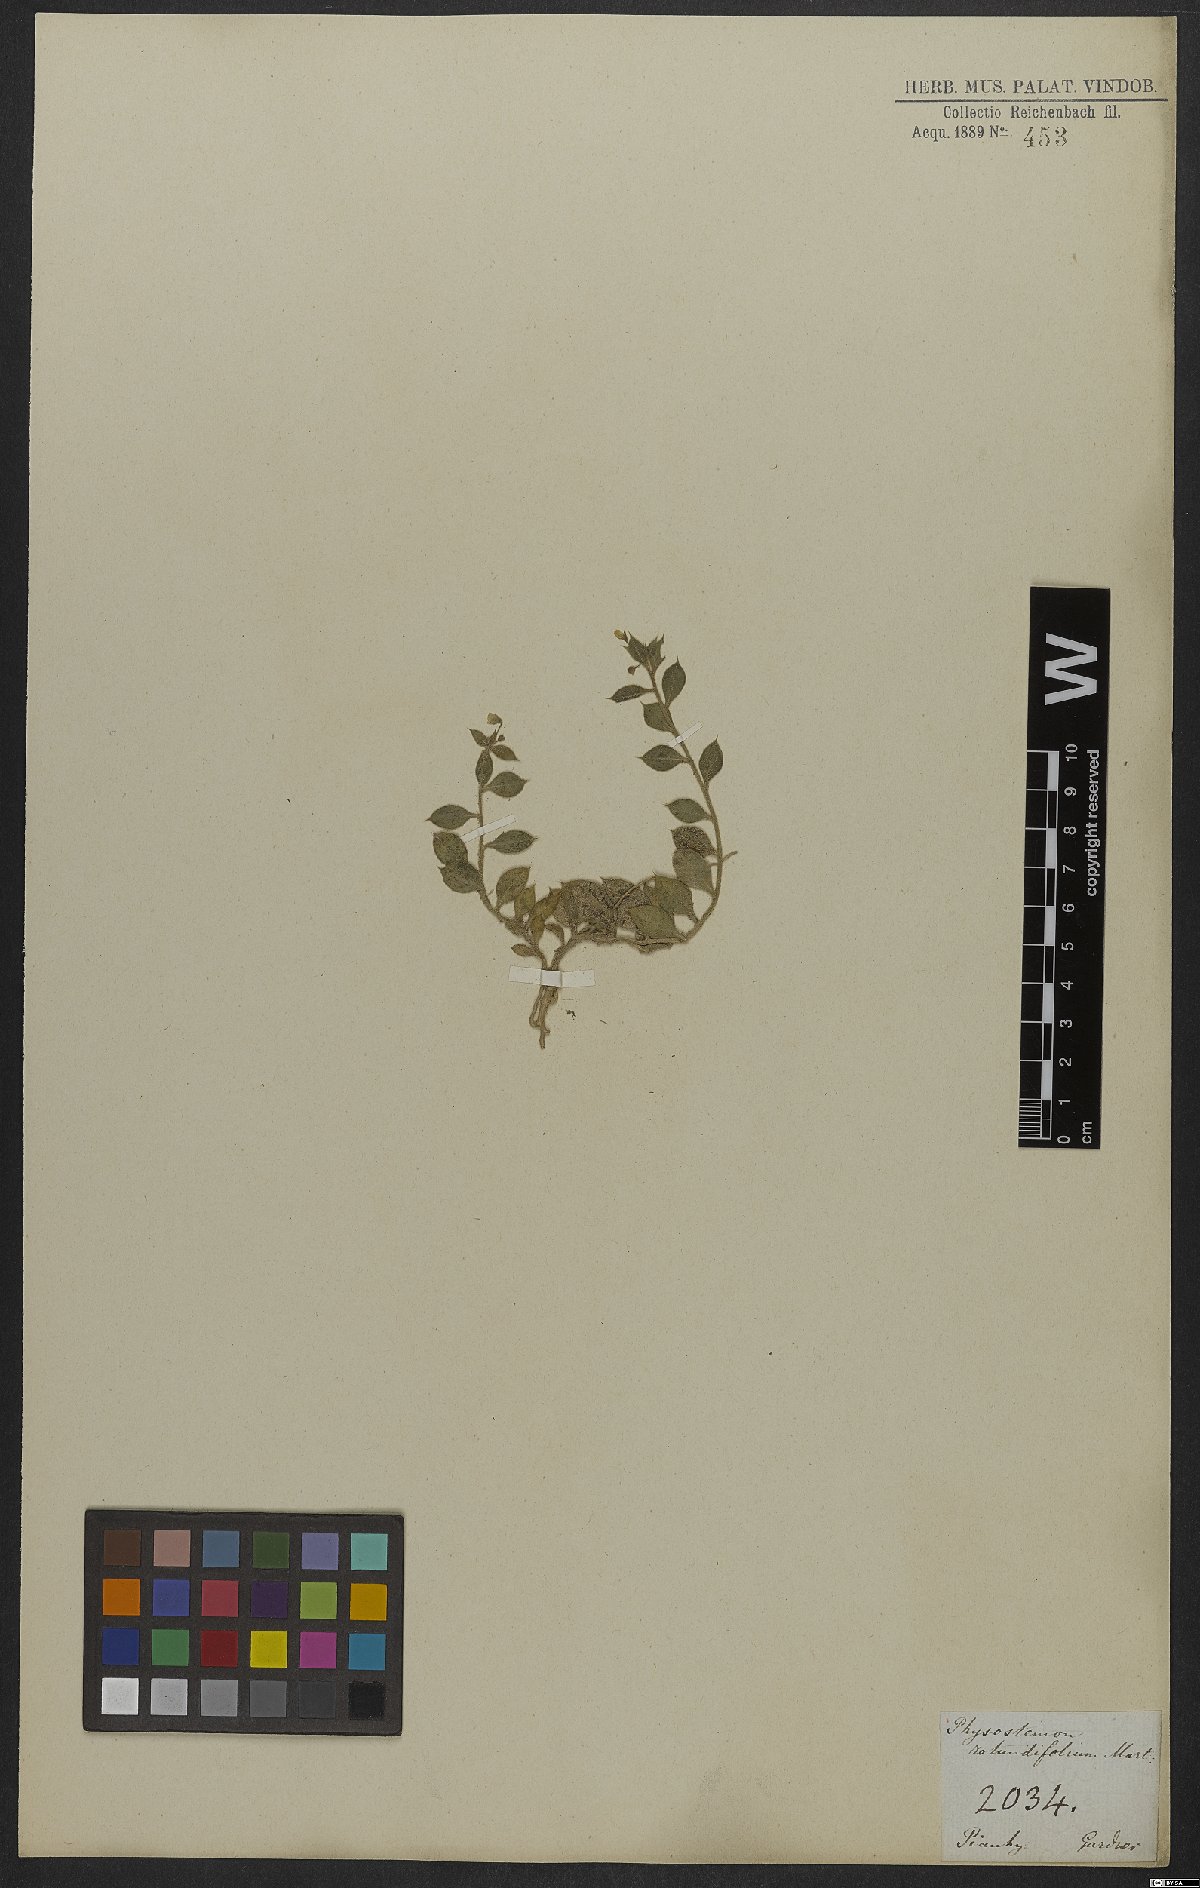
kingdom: Plantae
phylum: Tracheophyta
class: Magnoliopsida
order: Brassicales
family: Cleomaceae
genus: Physostemon
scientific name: Physostemon rotundifolius
